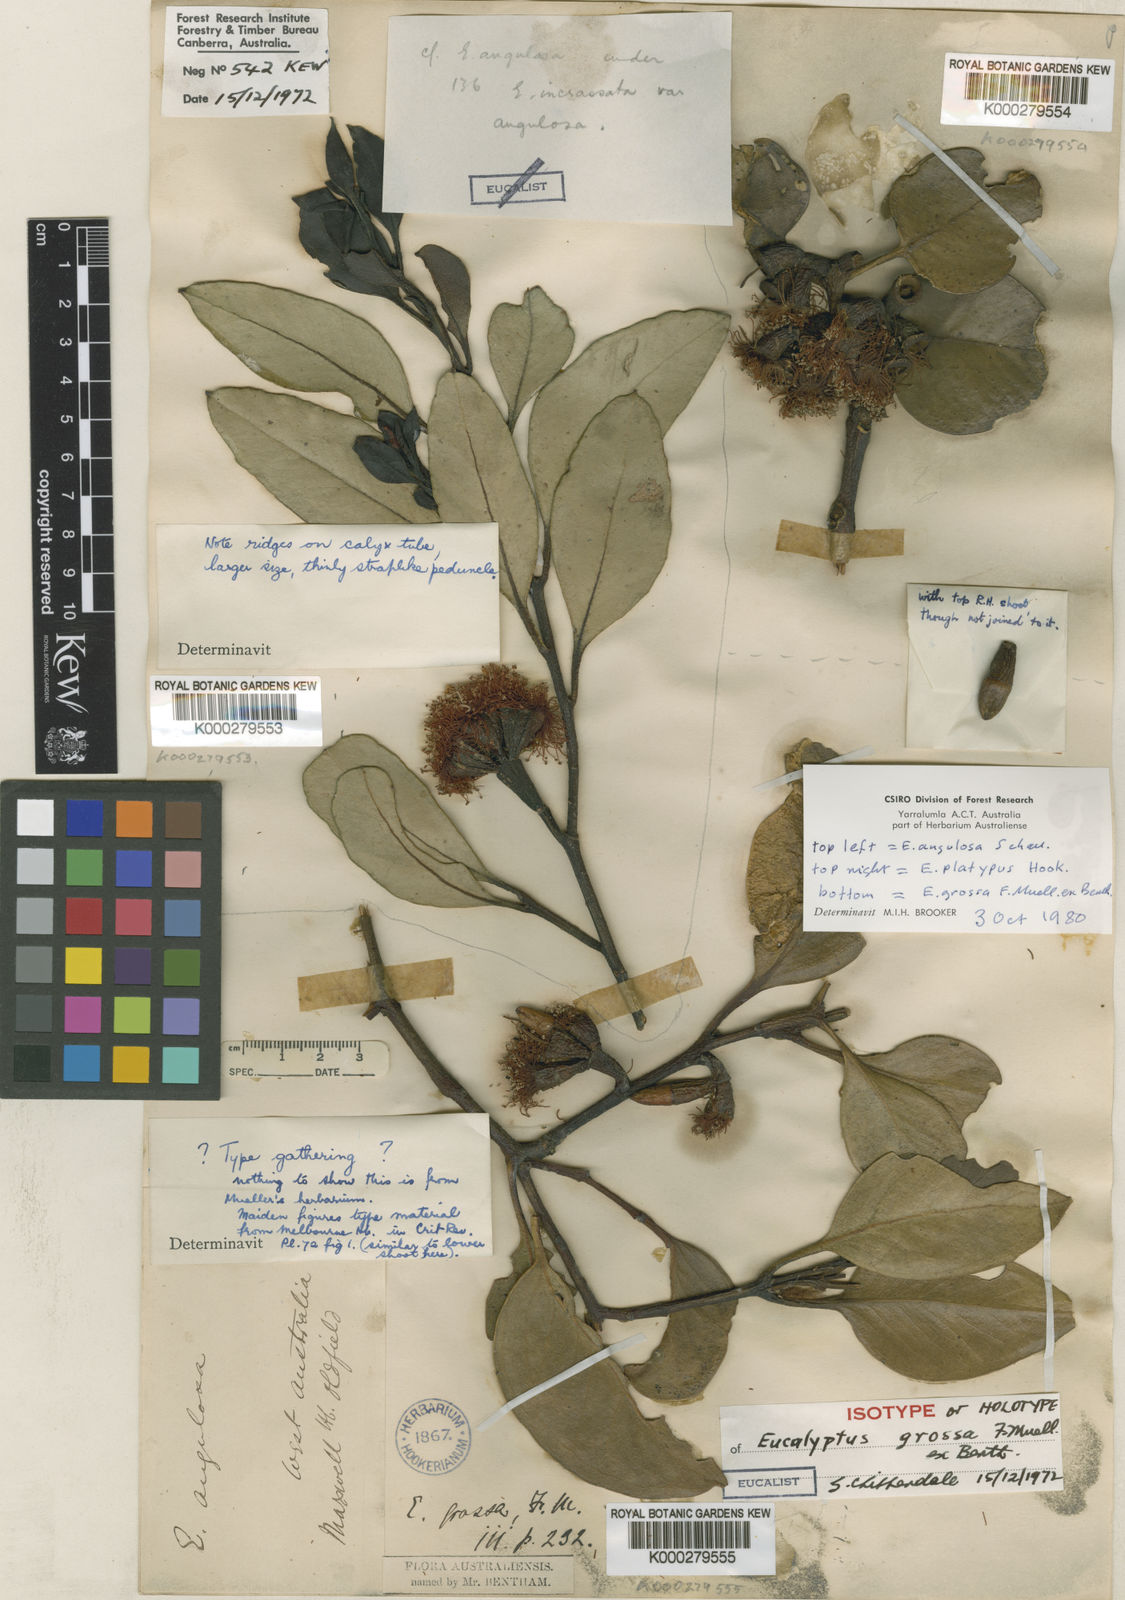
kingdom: Plantae
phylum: Tracheophyta
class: Magnoliopsida
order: Myrtales
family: Myrtaceae
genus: Eucalyptus
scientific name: Eucalyptus grossa
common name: Coarse-leaved mallee
